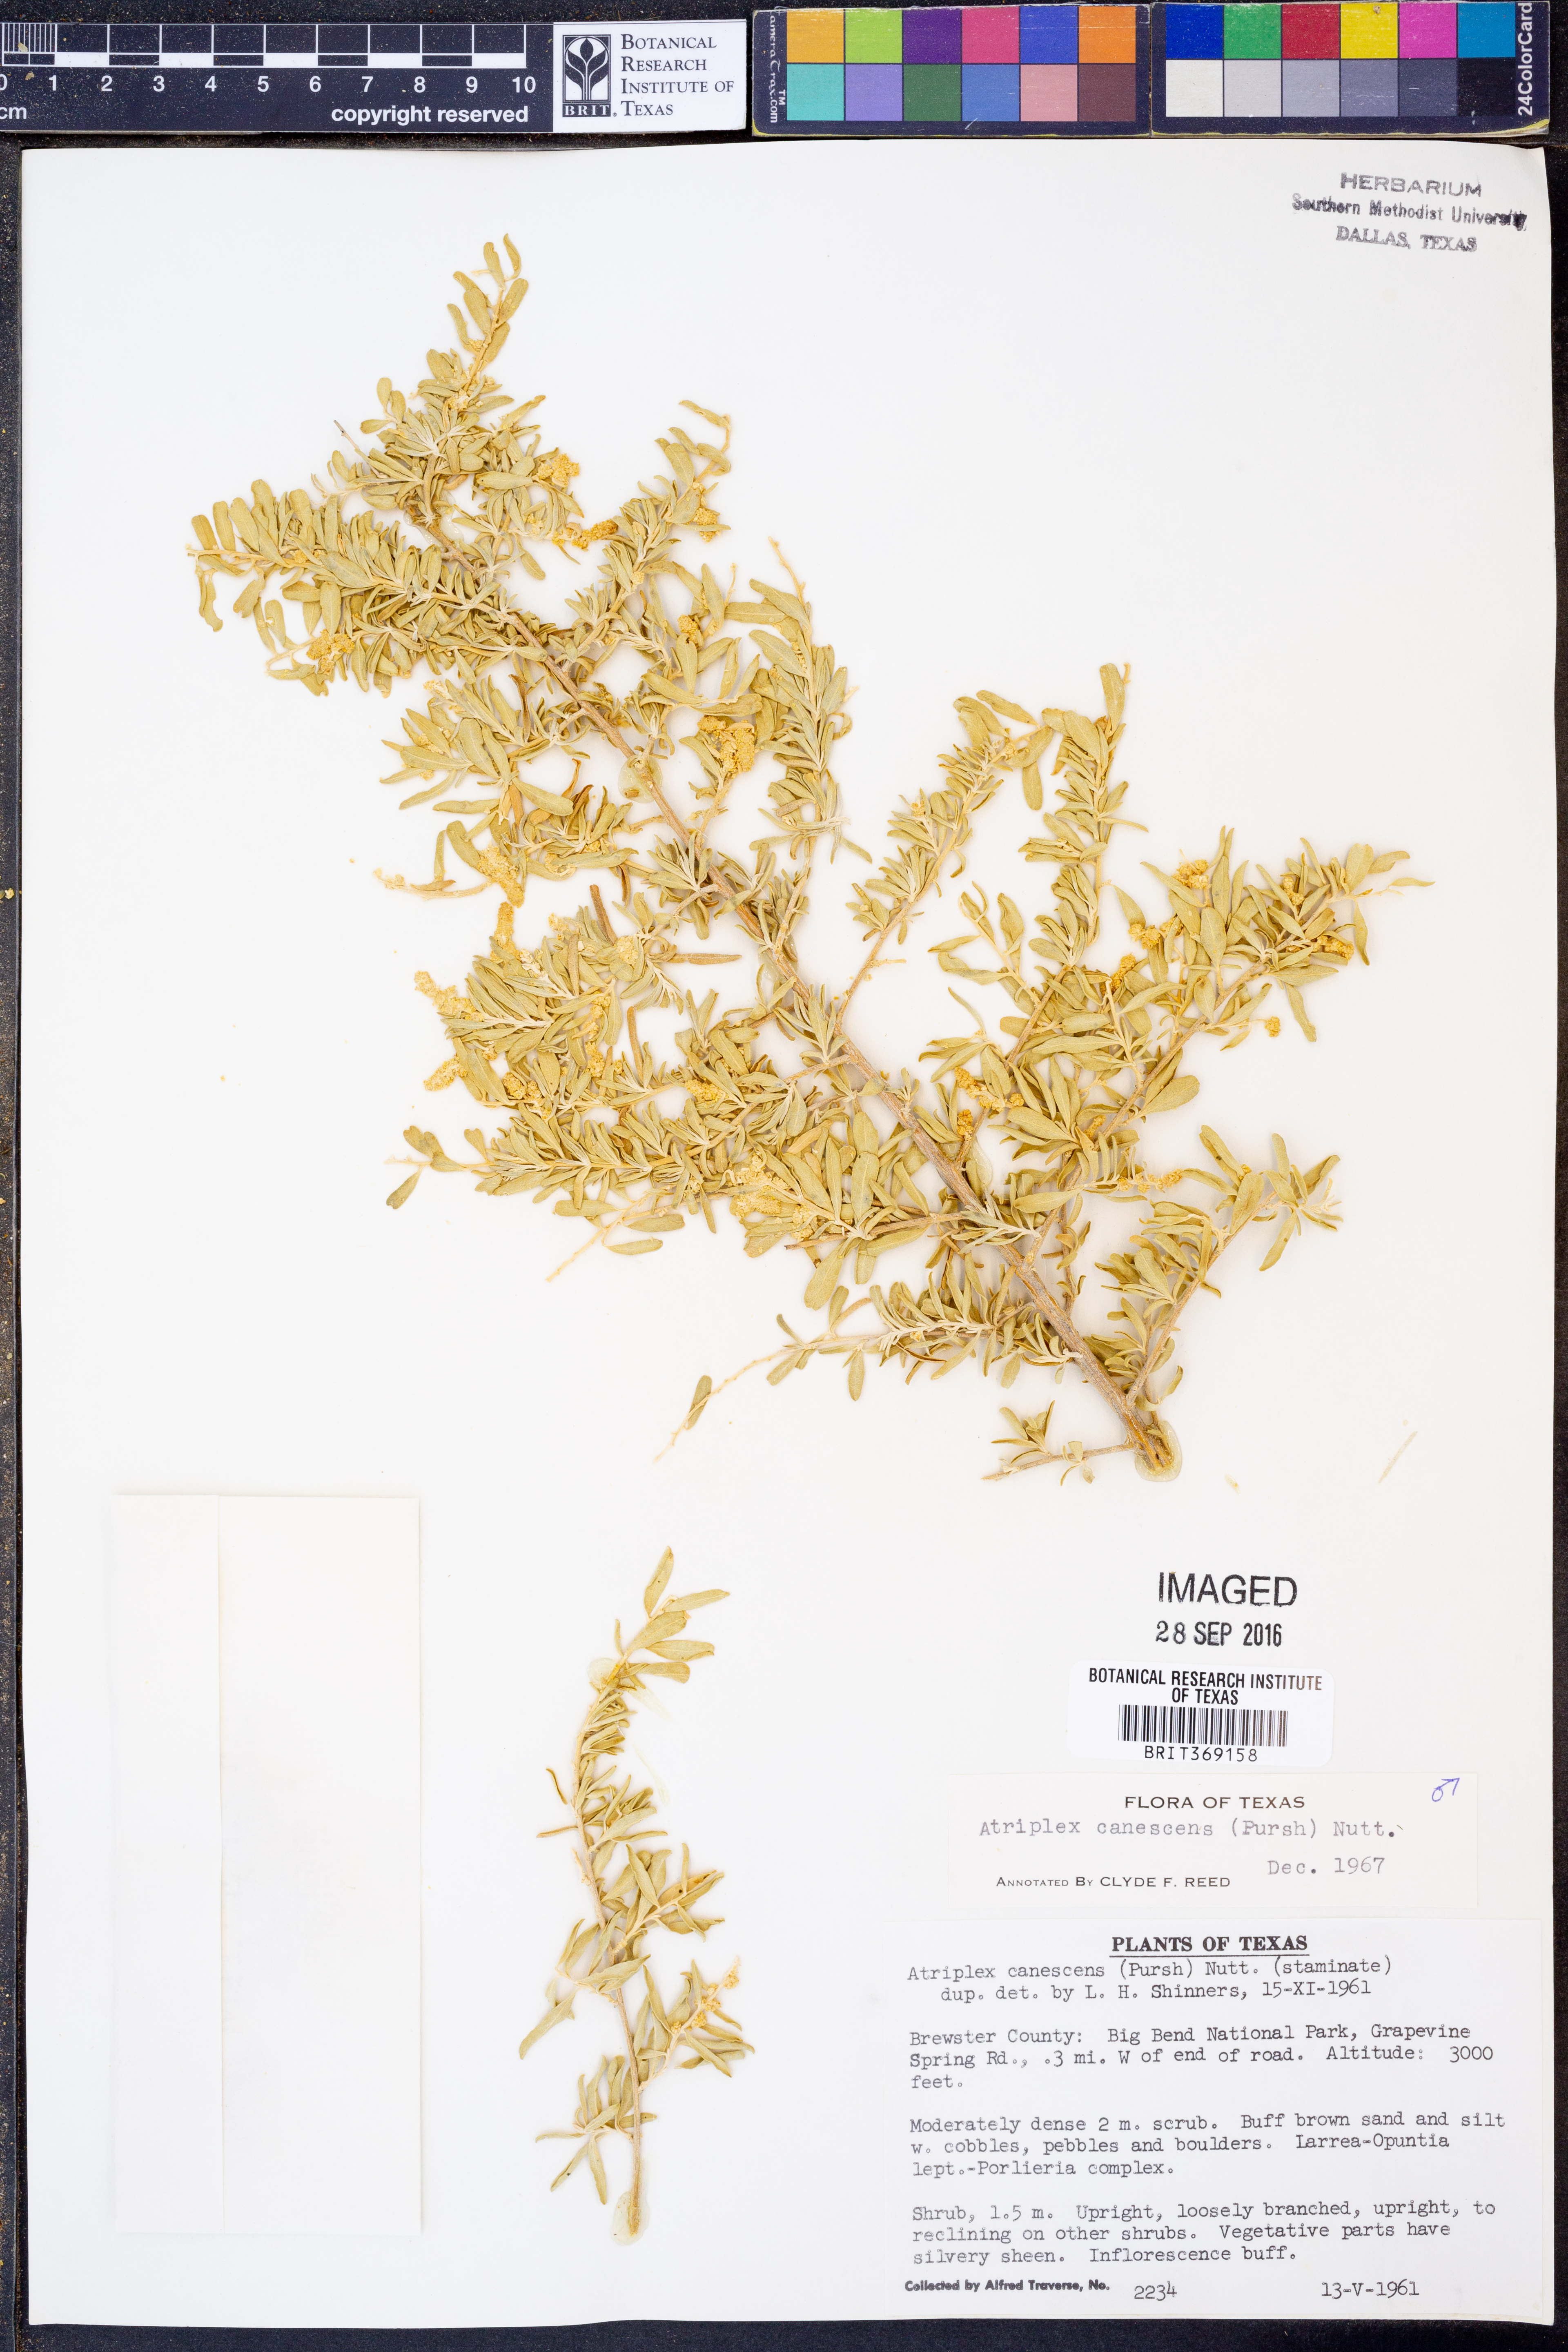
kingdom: Plantae
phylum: Tracheophyta
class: Magnoliopsida
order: Caryophyllales
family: Amaranthaceae
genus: Atriplex
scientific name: Atriplex canescens
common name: Four-wing saltbush
